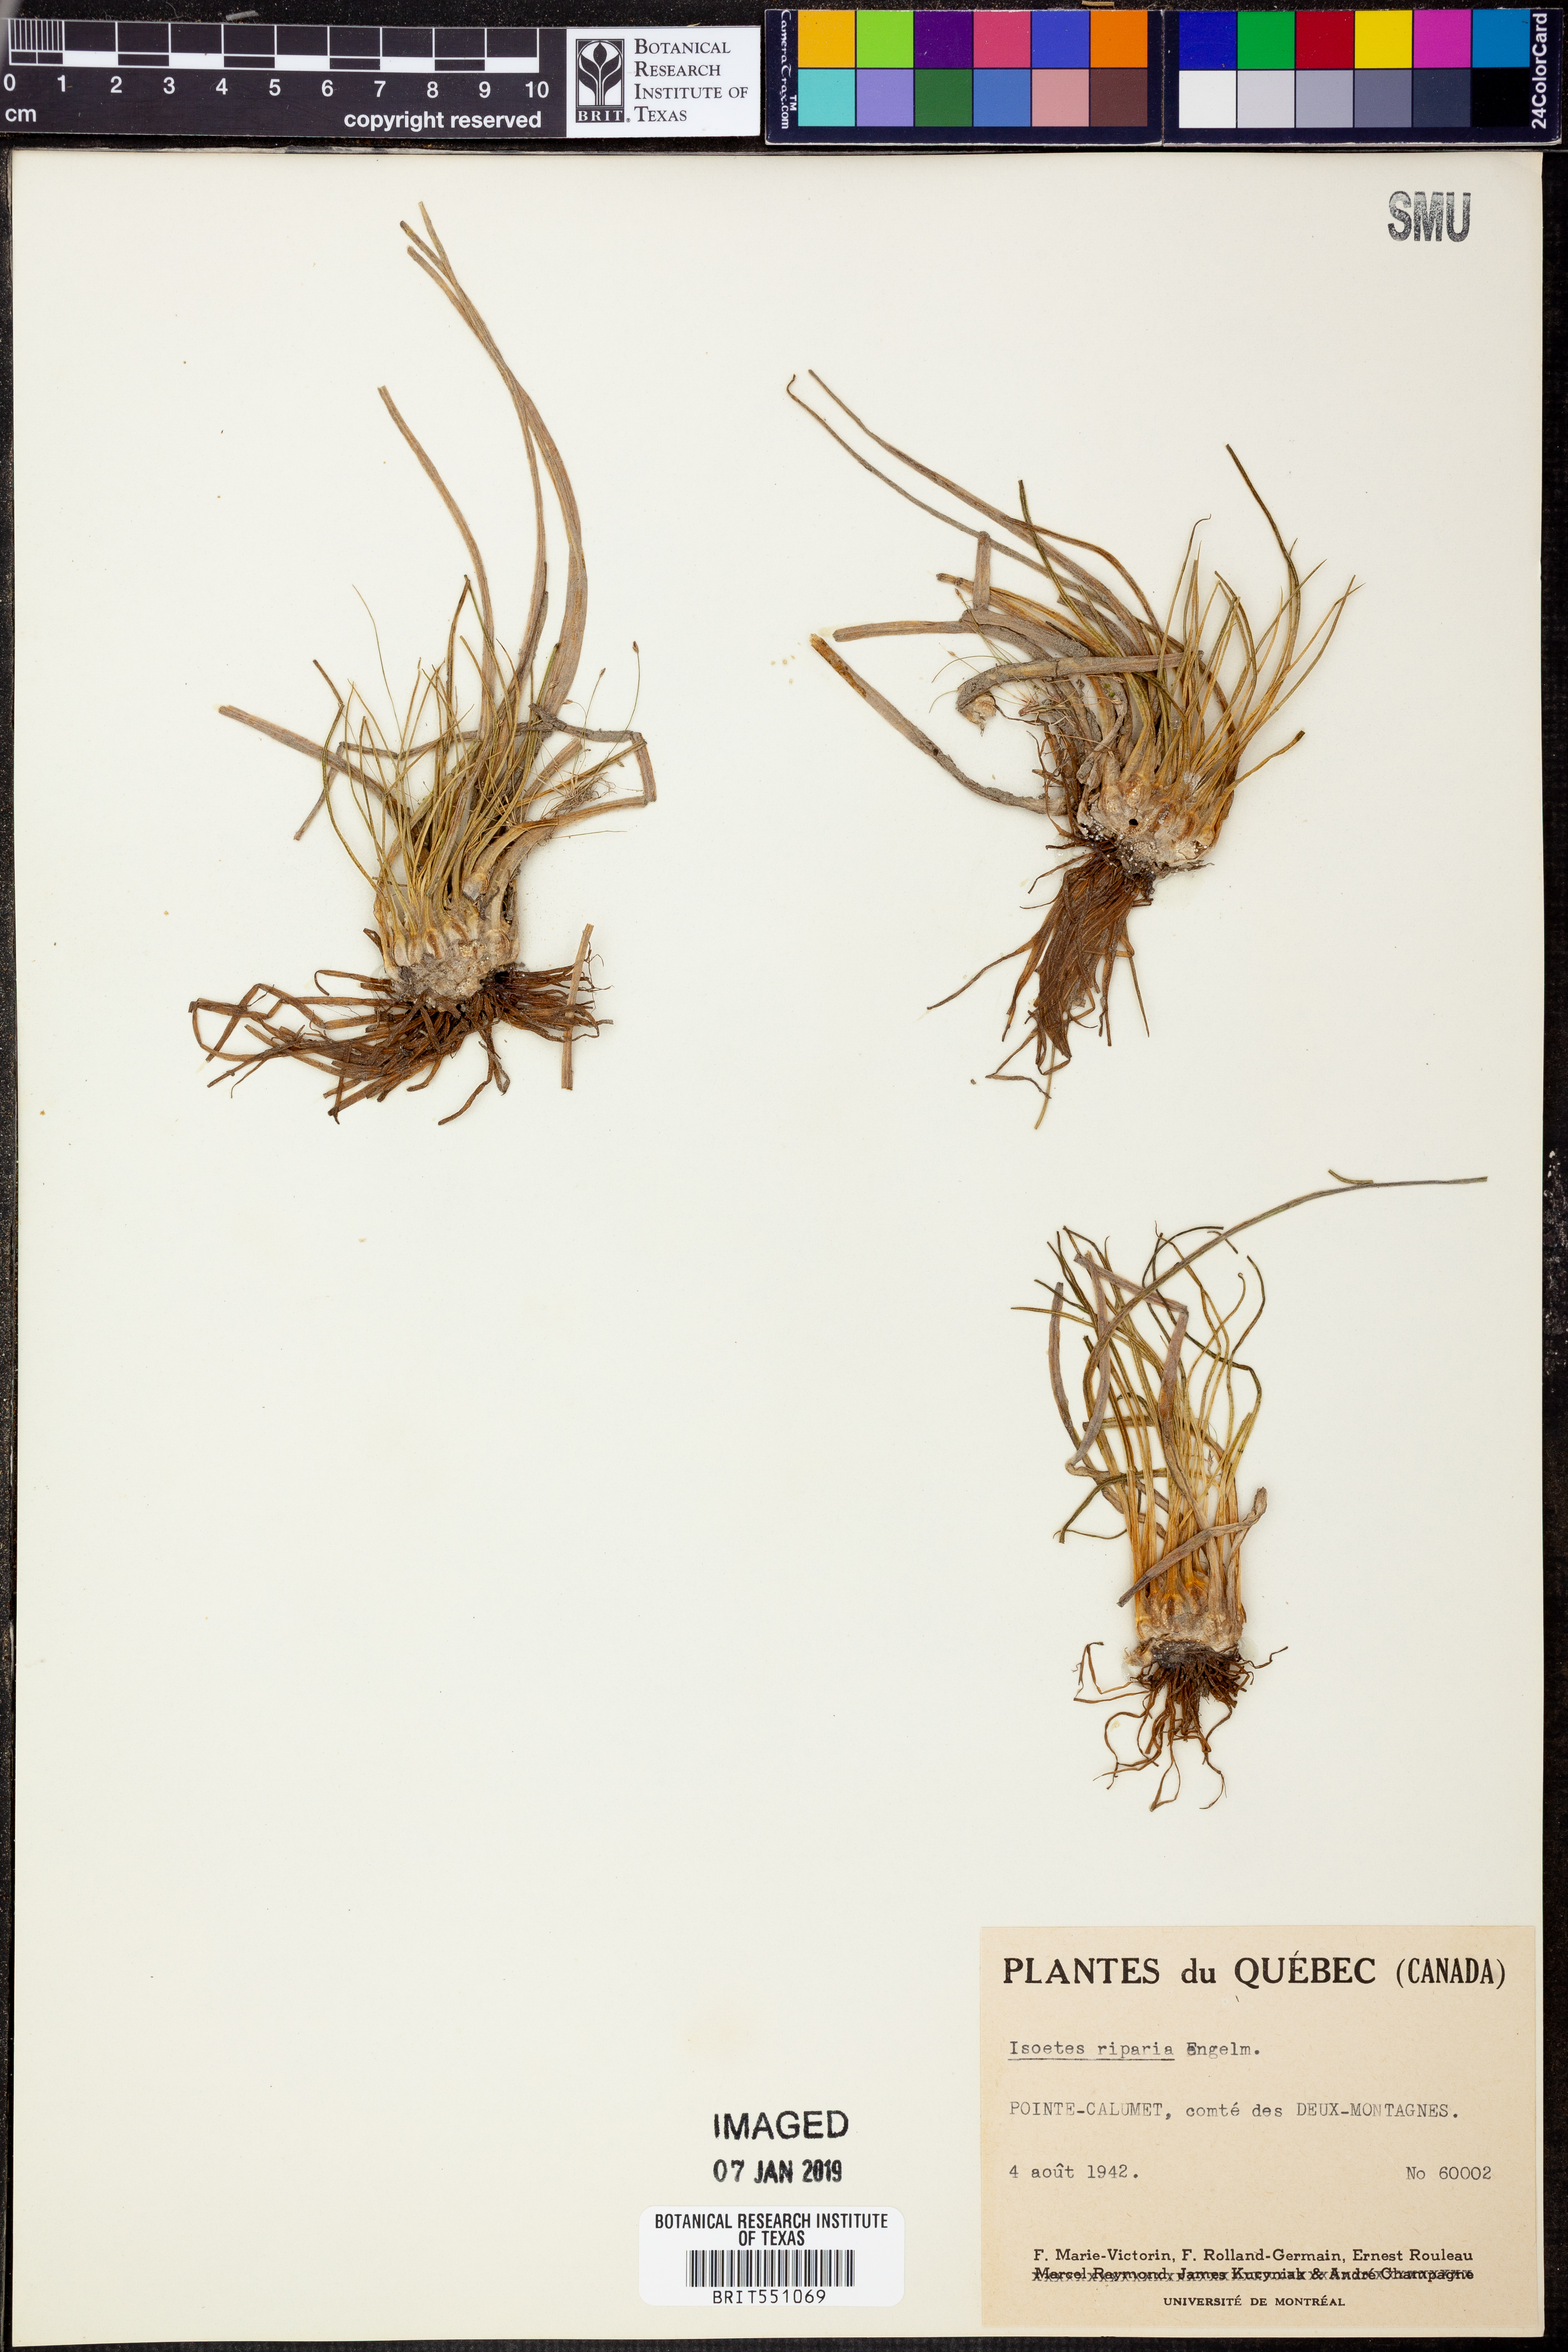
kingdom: Plantae
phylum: Tracheophyta
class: Lycopodiopsida
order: Isoetales
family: Isoetaceae
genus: Isoetes
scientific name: Isoetes riparia
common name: Riverbank quillwort
